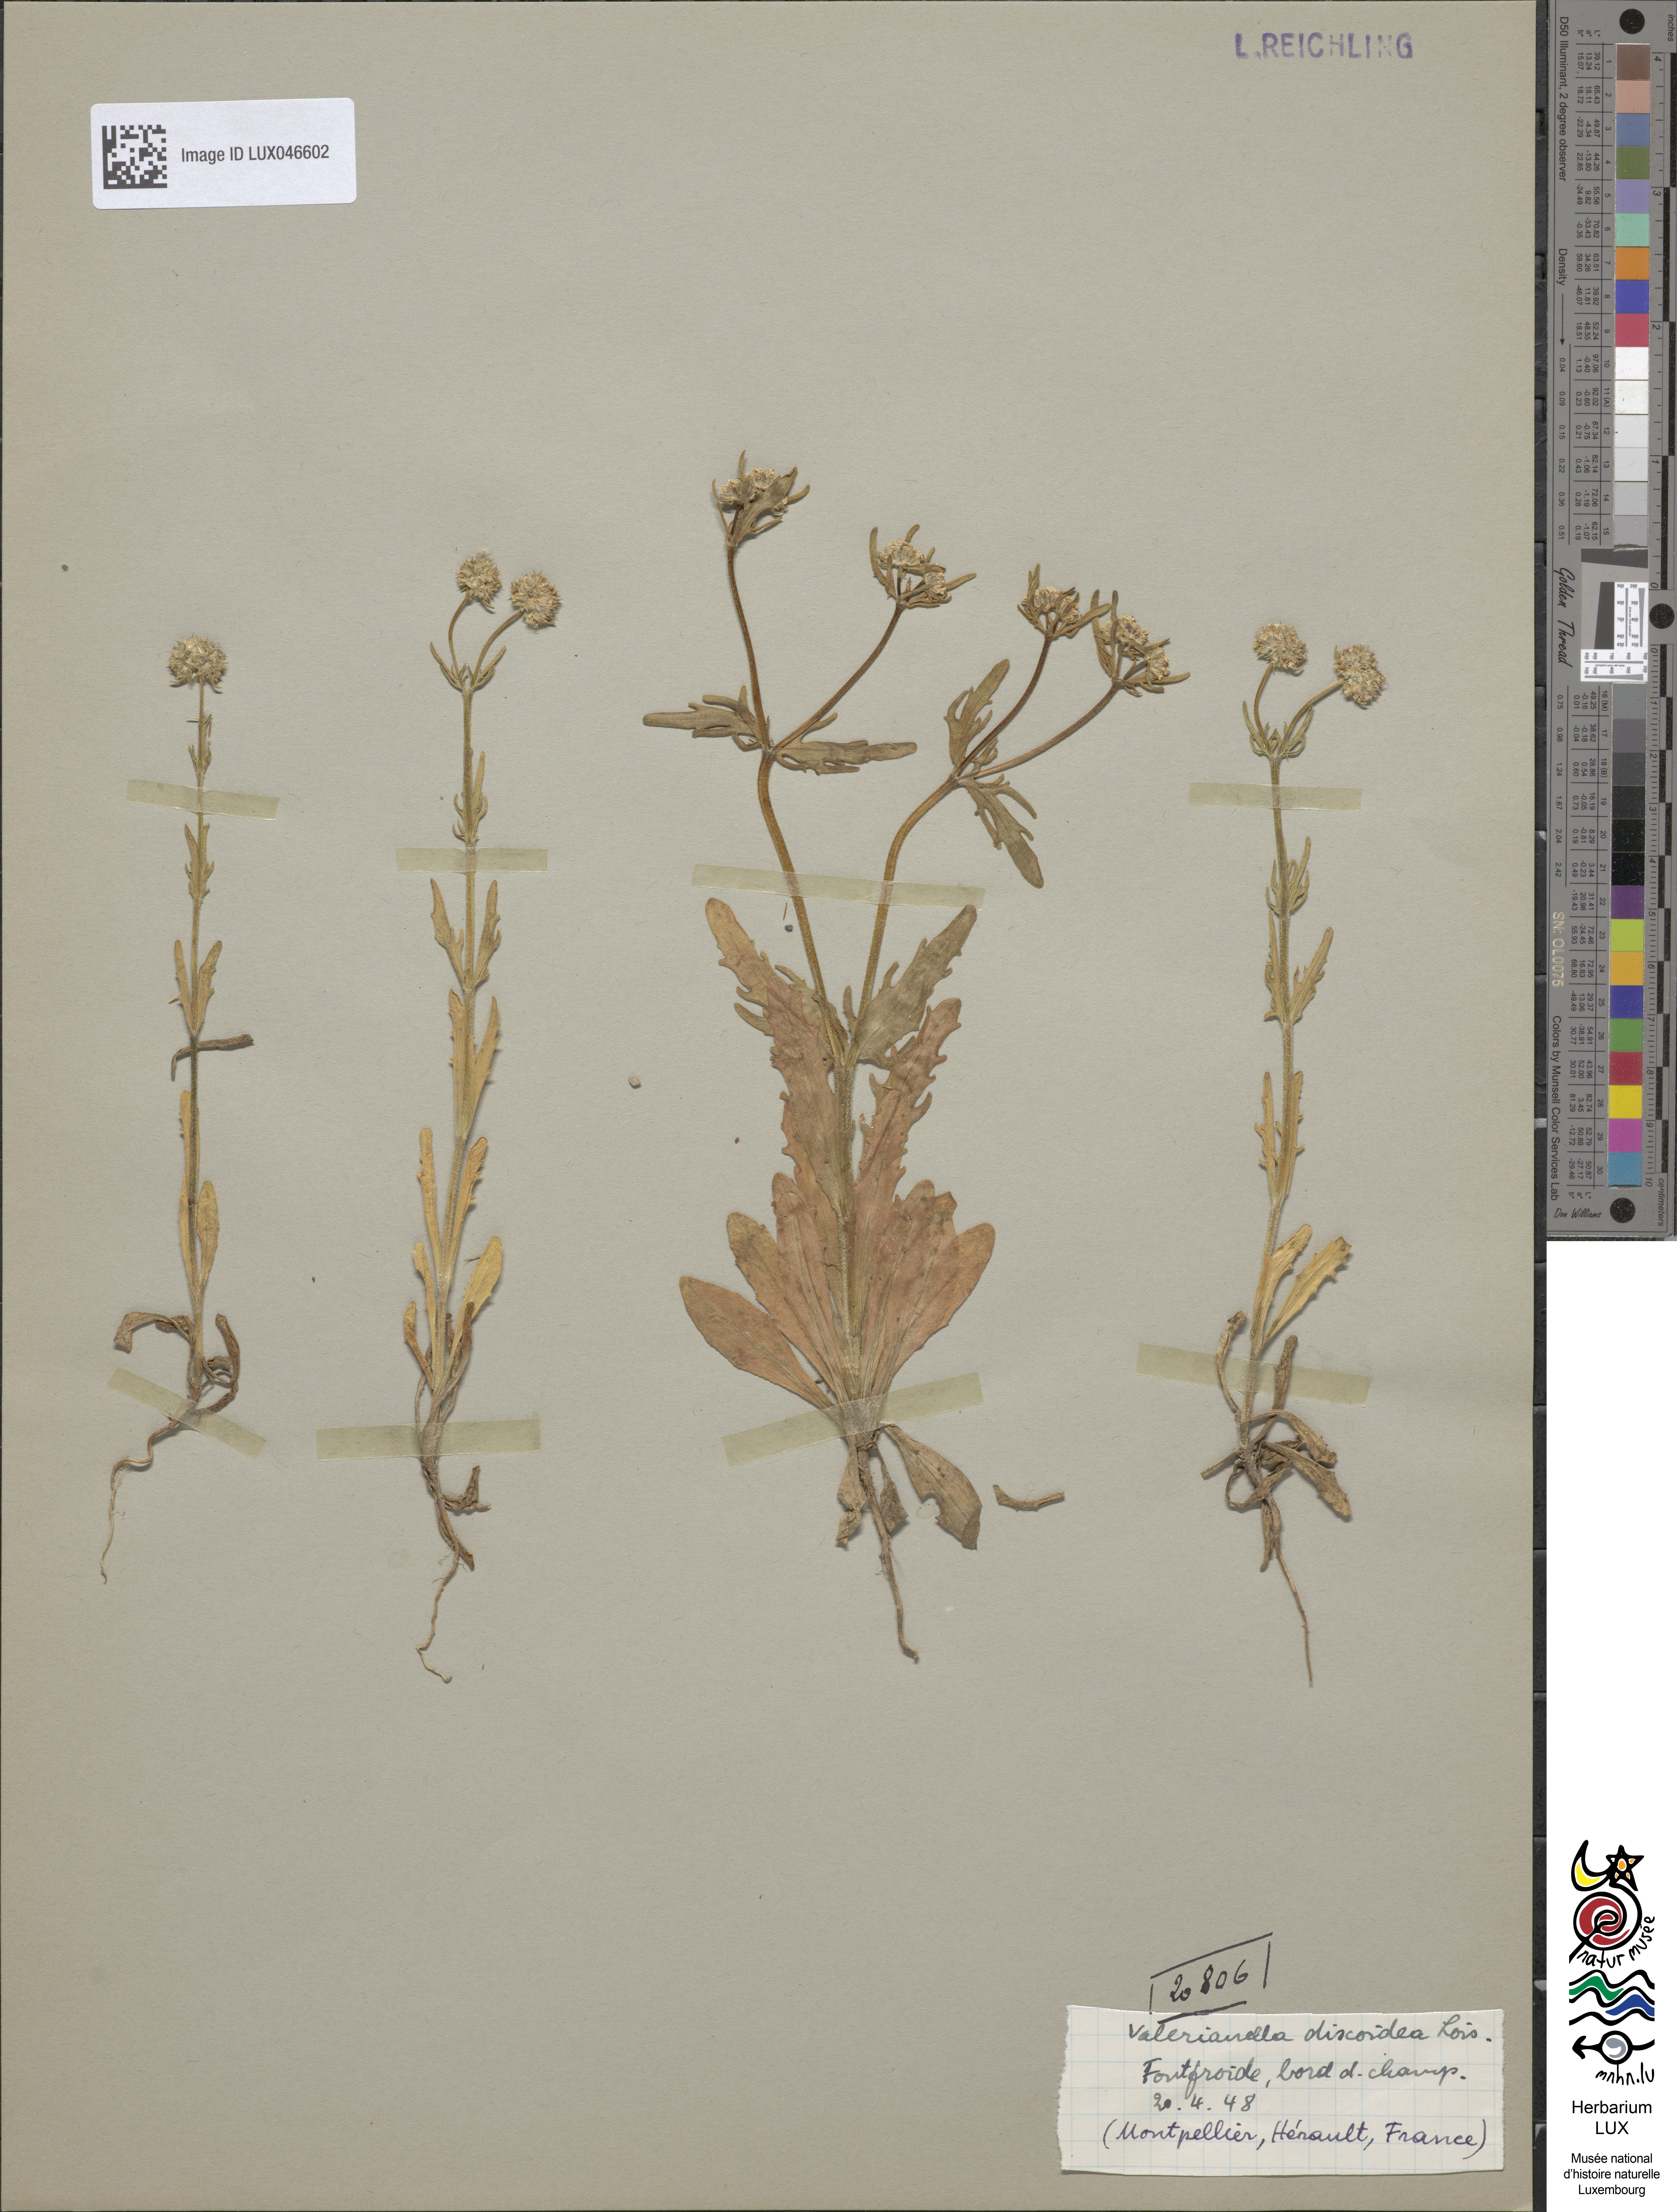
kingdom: Plantae
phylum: Tracheophyta
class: Magnoliopsida
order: Dipsacales
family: Caprifoliaceae
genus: Valerianella
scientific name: Valerianella discoidea
